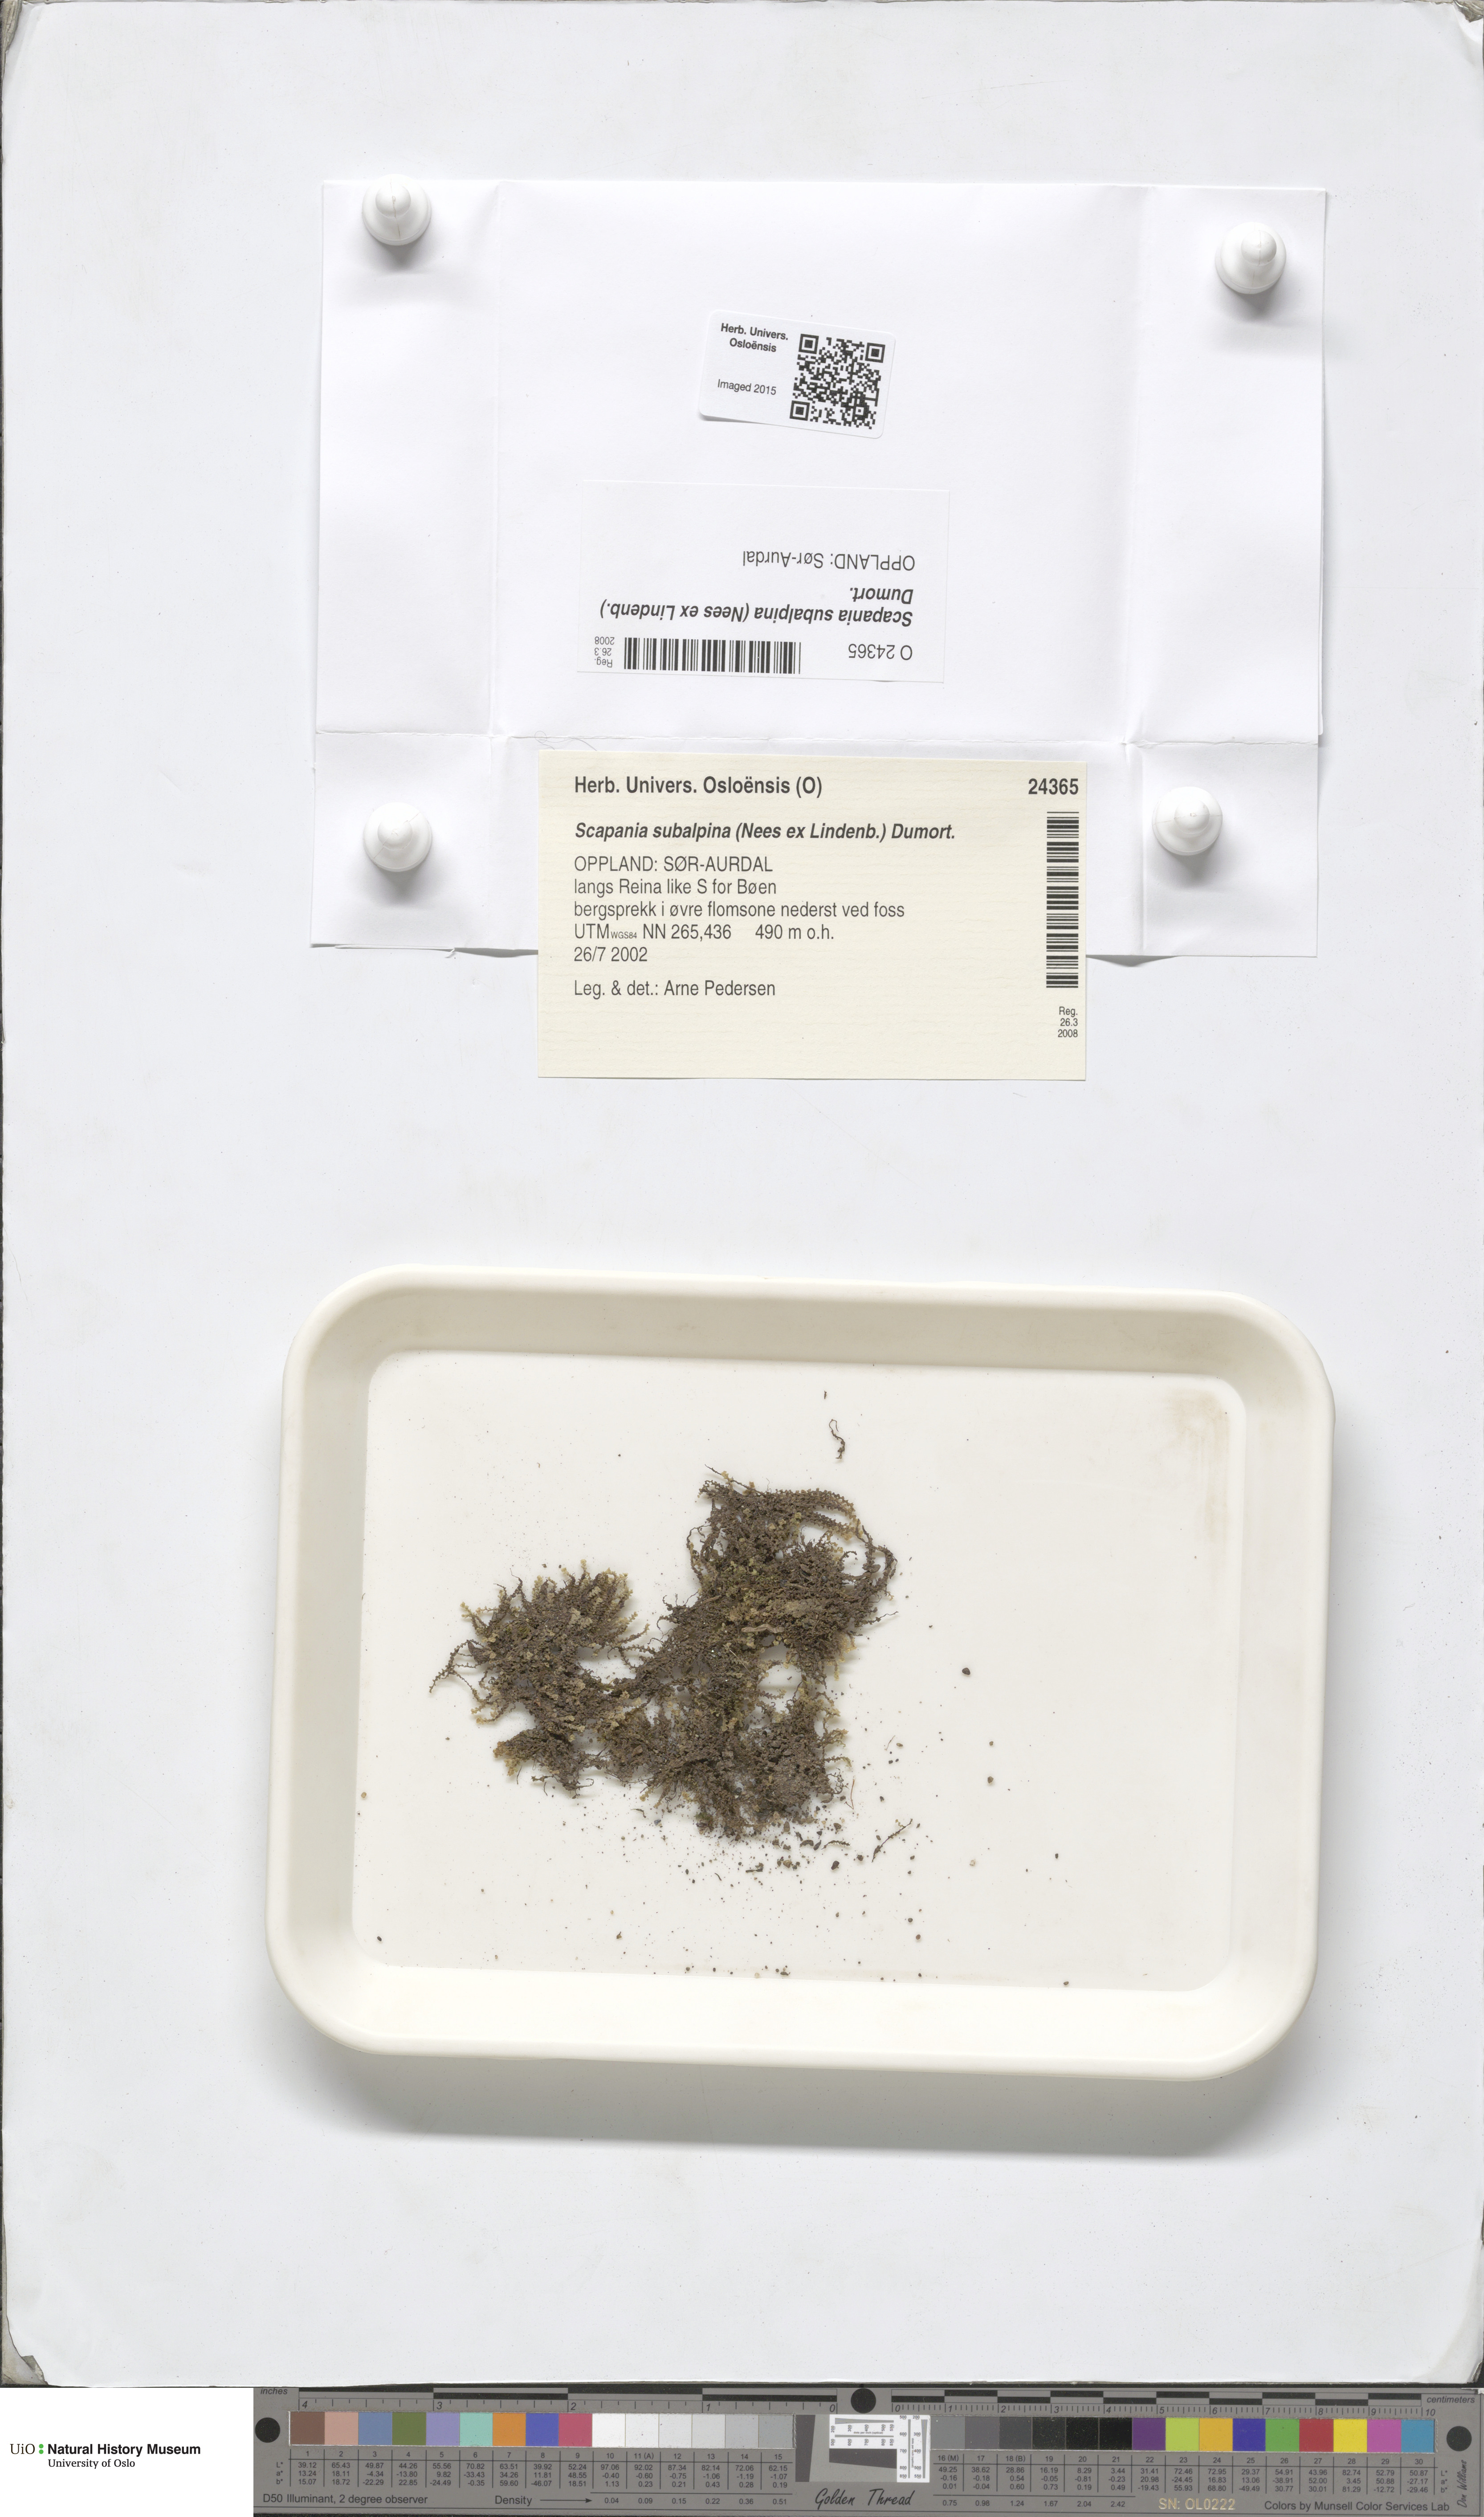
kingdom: Plantae
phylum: Marchantiophyta
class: Jungermanniopsida
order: Jungermanniales
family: Scapaniaceae
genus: Scapania
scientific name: Scapania subalpina
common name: Subalpine earwort
